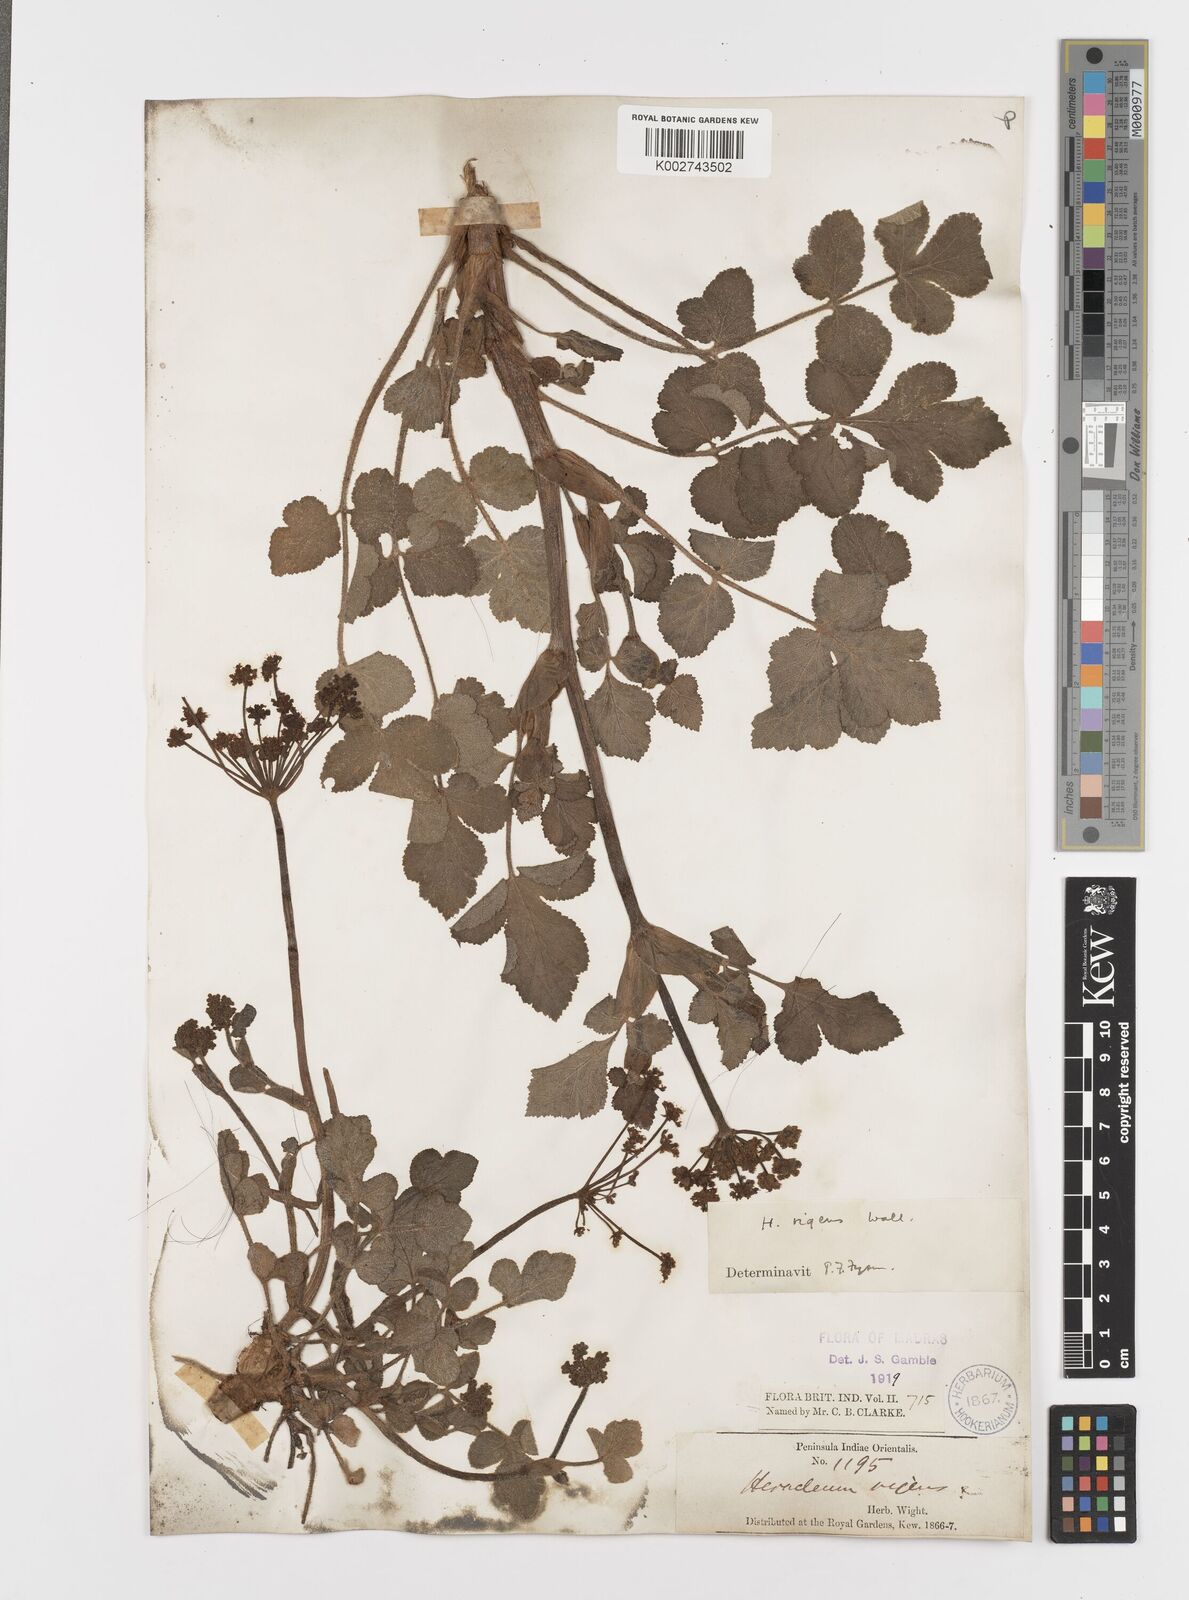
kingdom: Plantae
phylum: Tracheophyta
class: Magnoliopsida
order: Apiales
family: Apiaceae
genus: Tetrataenium
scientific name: Tetrataenium rigens
